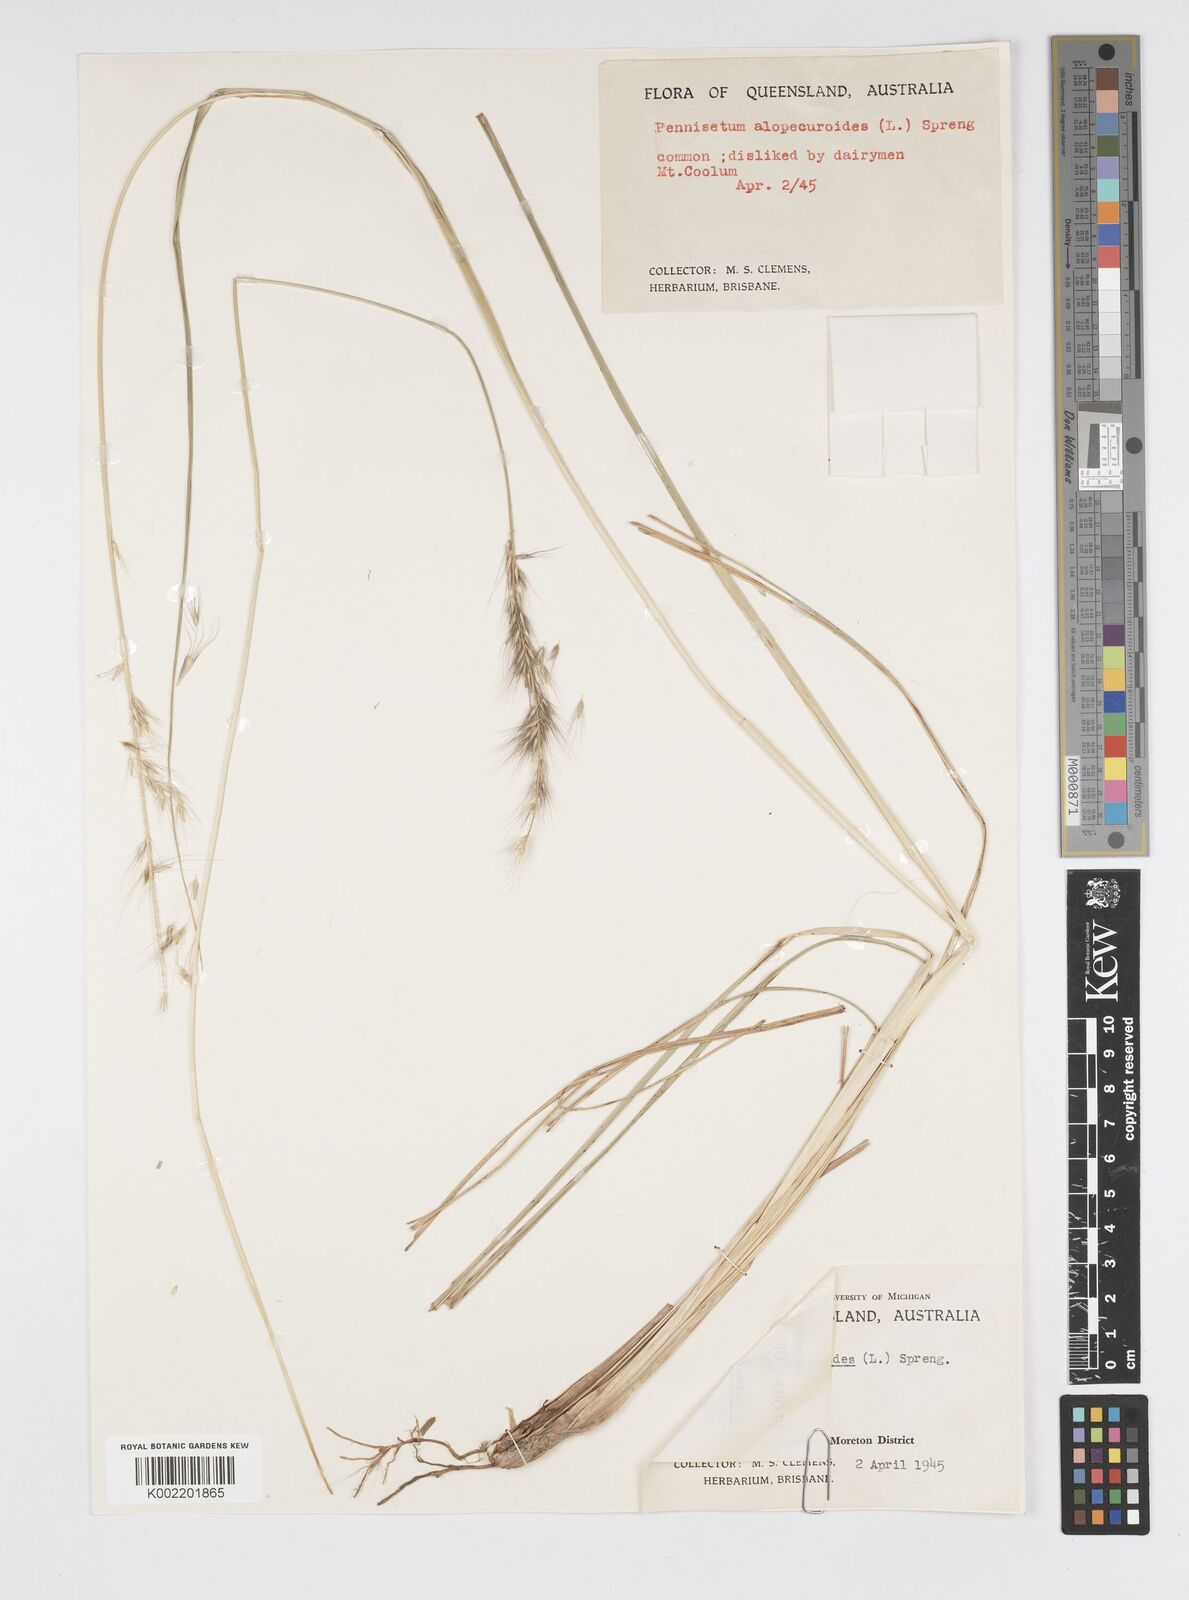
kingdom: Plantae
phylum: Tracheophyta
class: Liliopsida
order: Poales
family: Poaceae
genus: Cenchrus
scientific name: Cenchrus alopecuroides
